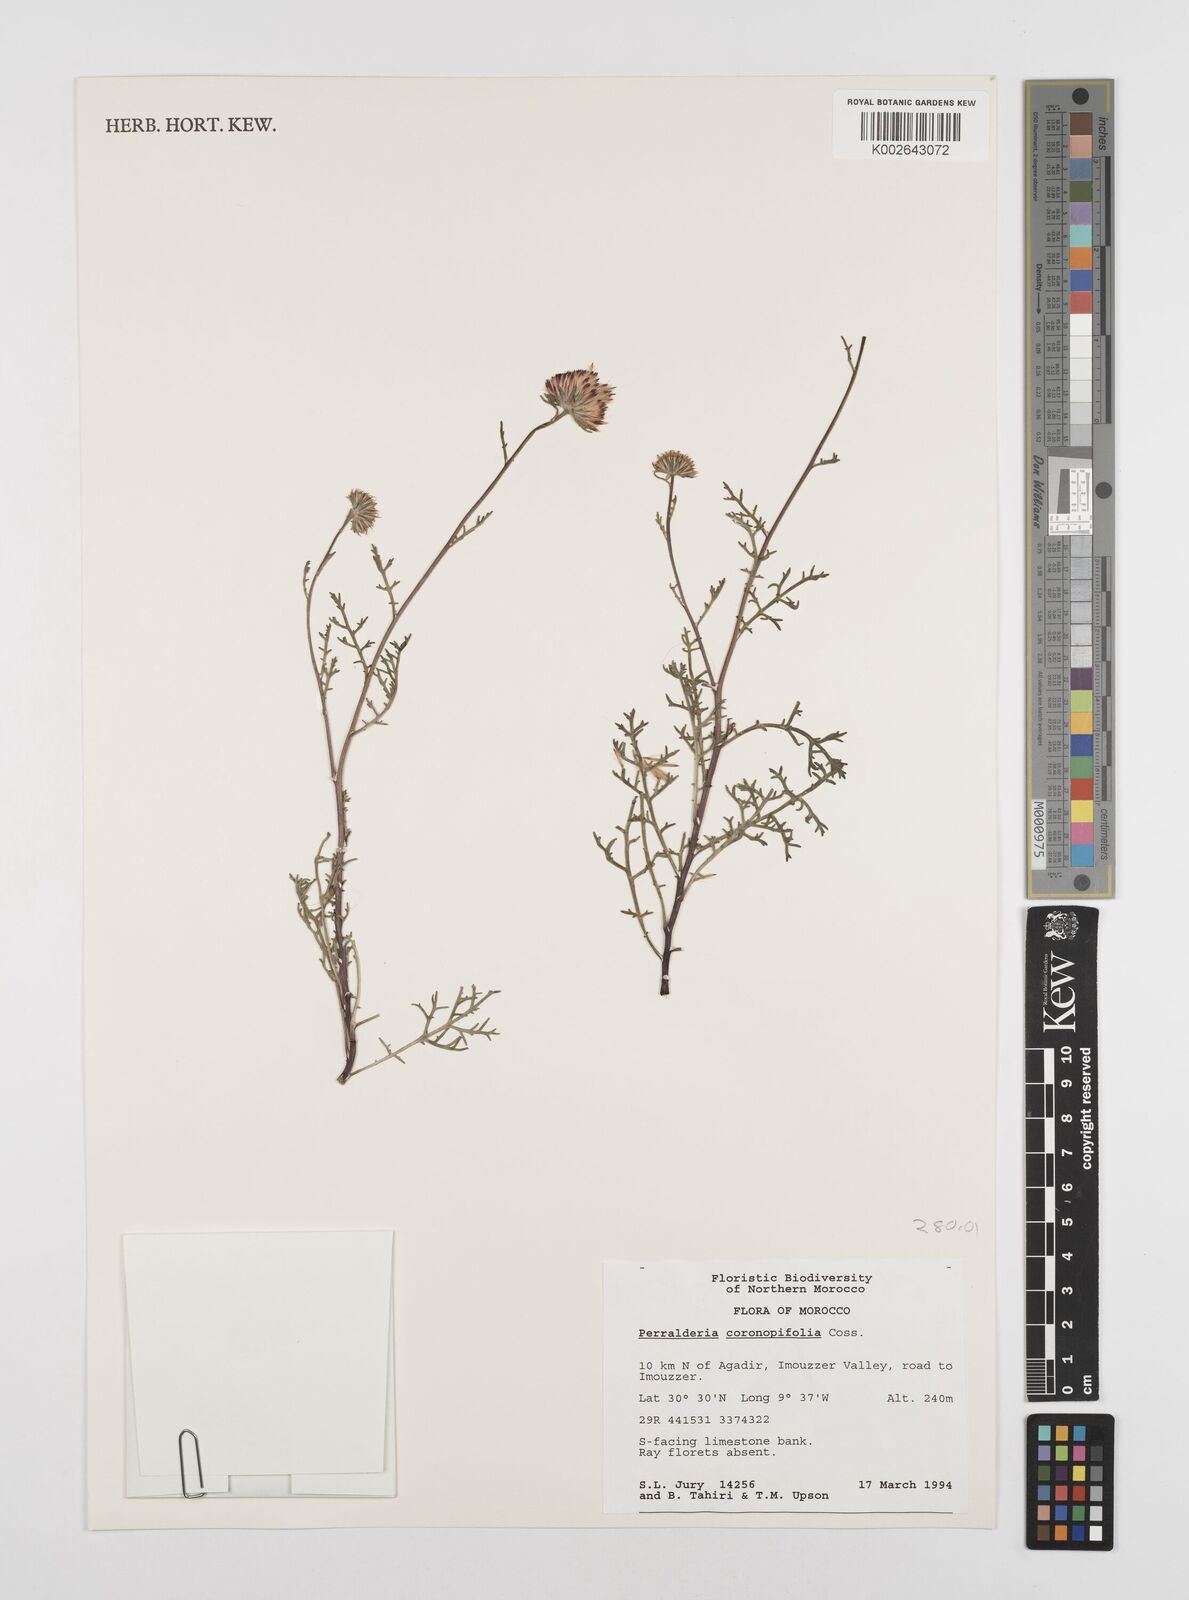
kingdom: Plantae
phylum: Tracheophyta
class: Magnoliopsida
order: Asterales
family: Asteraceae
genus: Perralderia
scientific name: Perralderia coronopifolia
